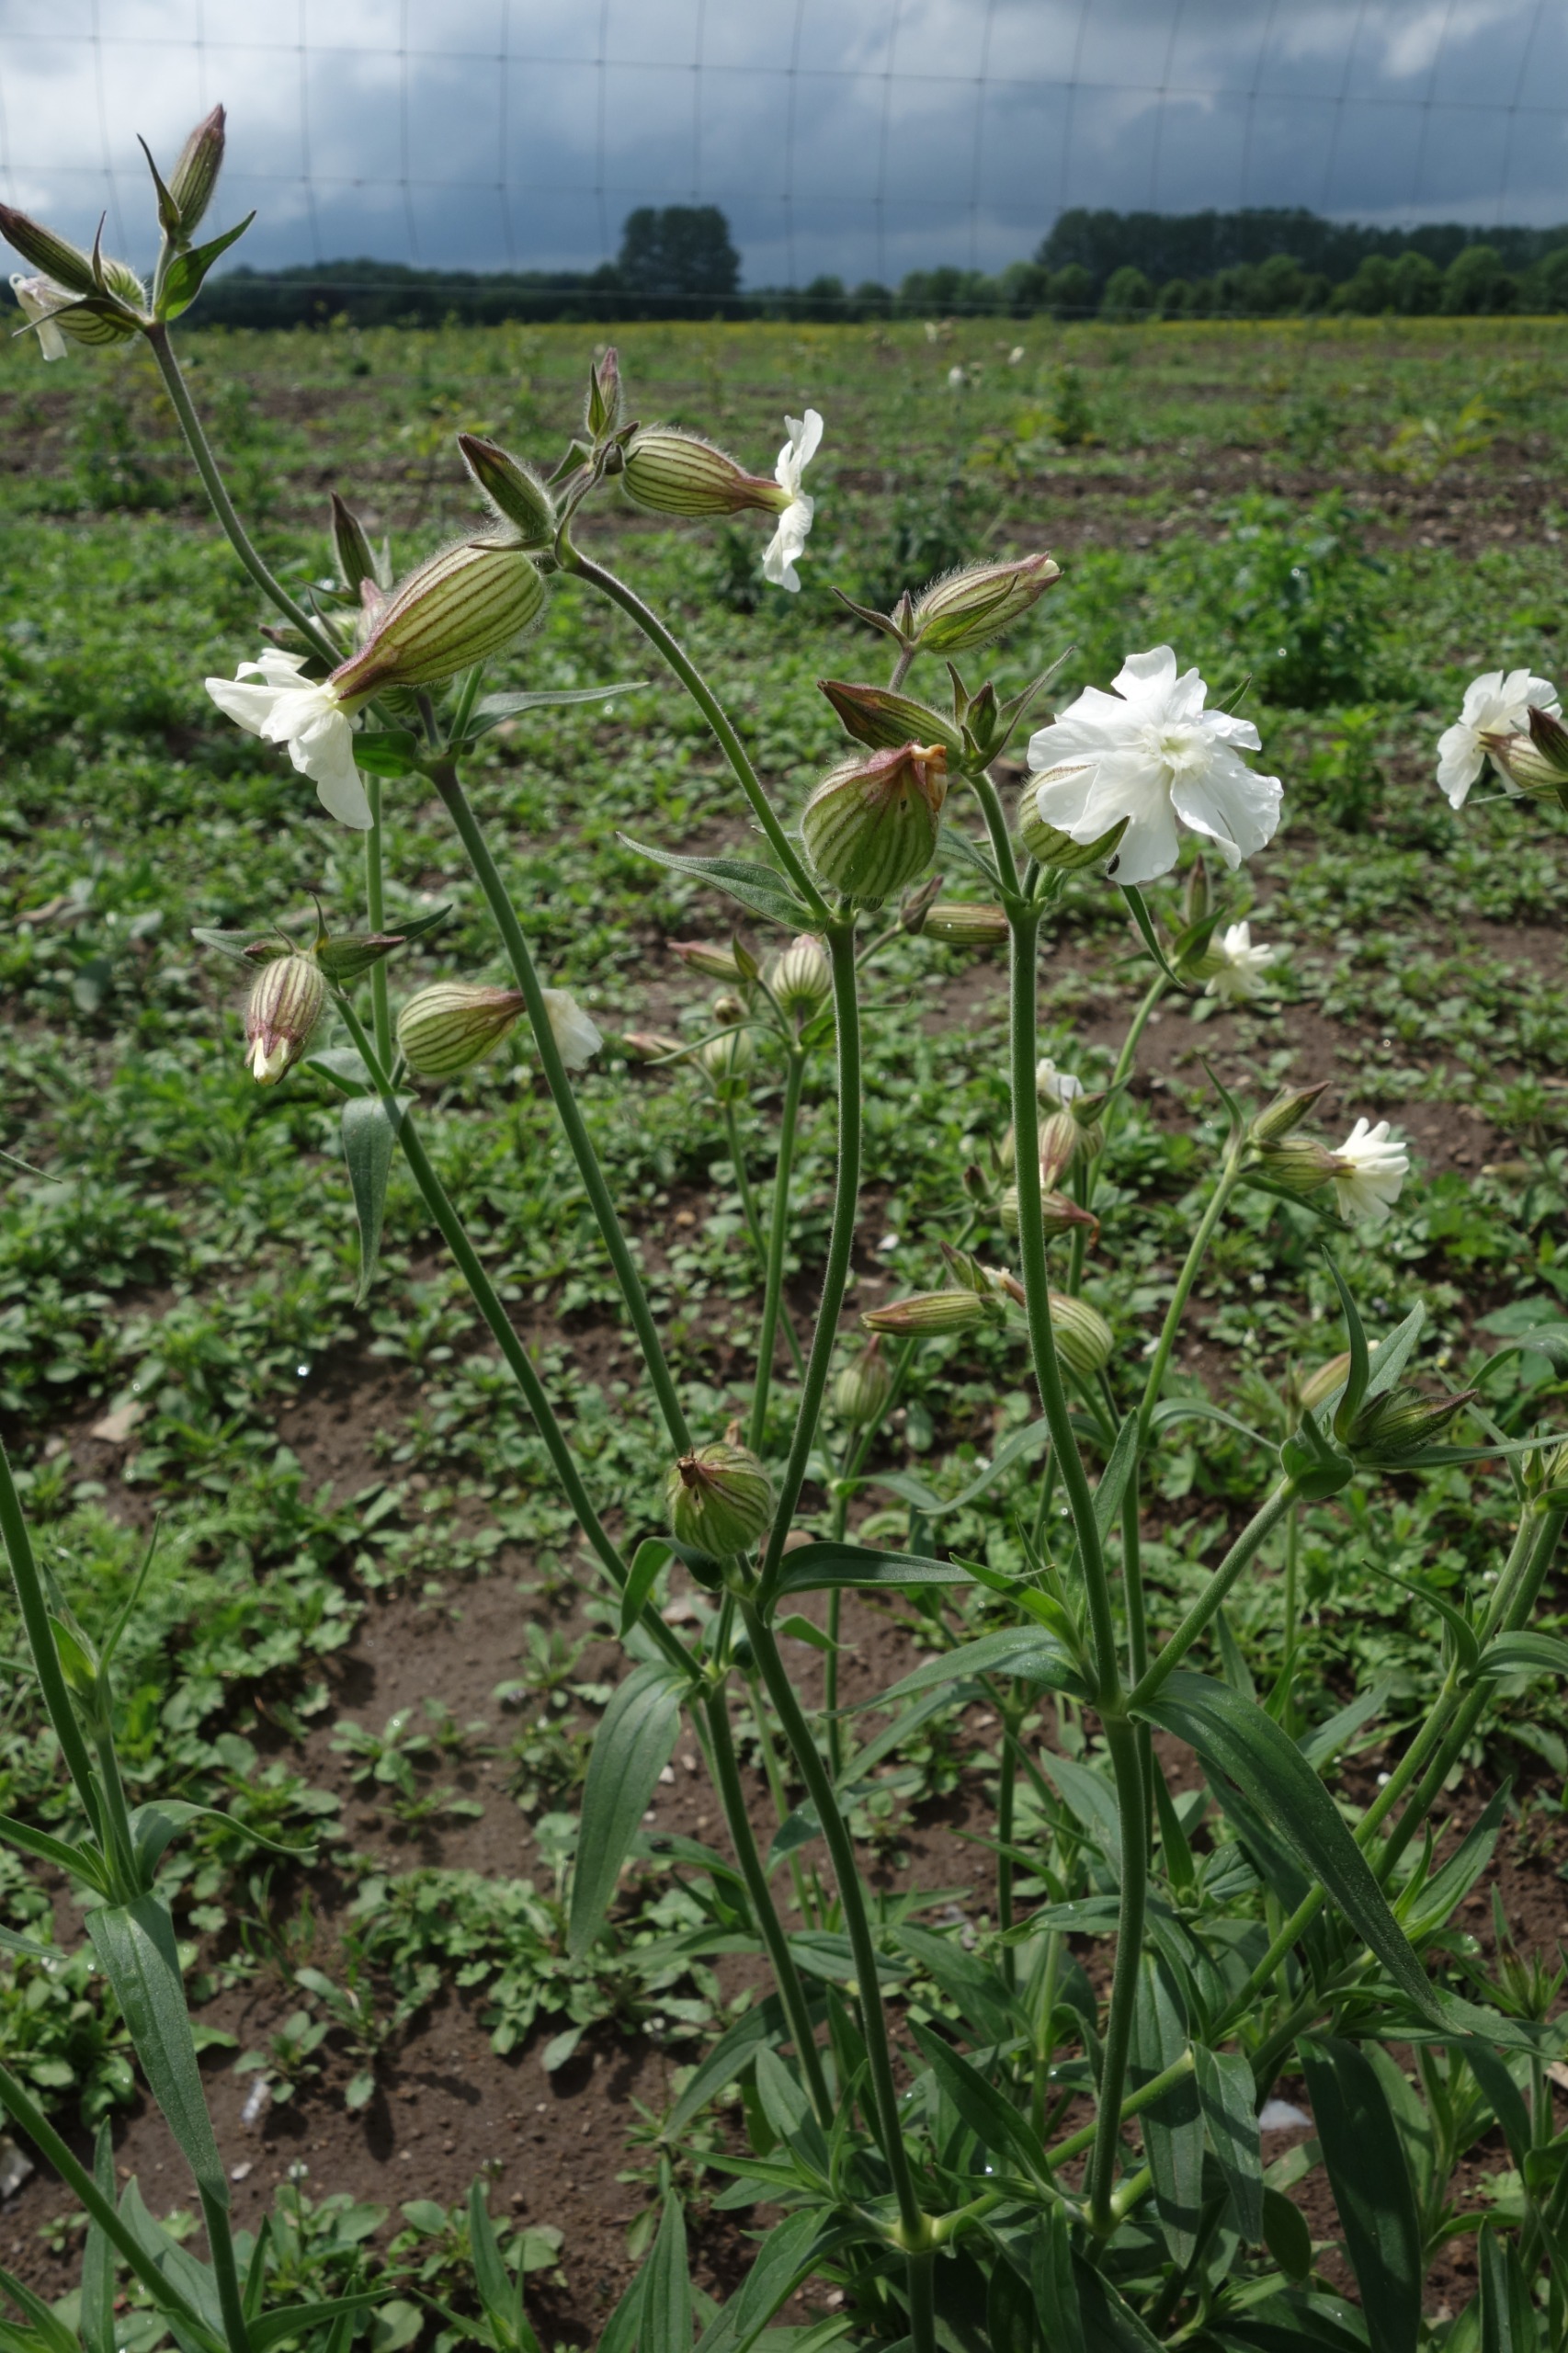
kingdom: Plantae
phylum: Tracheophyta
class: Magnoliopsida
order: Caryophyllales
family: Caryophyllaceae
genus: Silene
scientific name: Silene latifolia
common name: Aftenpragtstjerne
